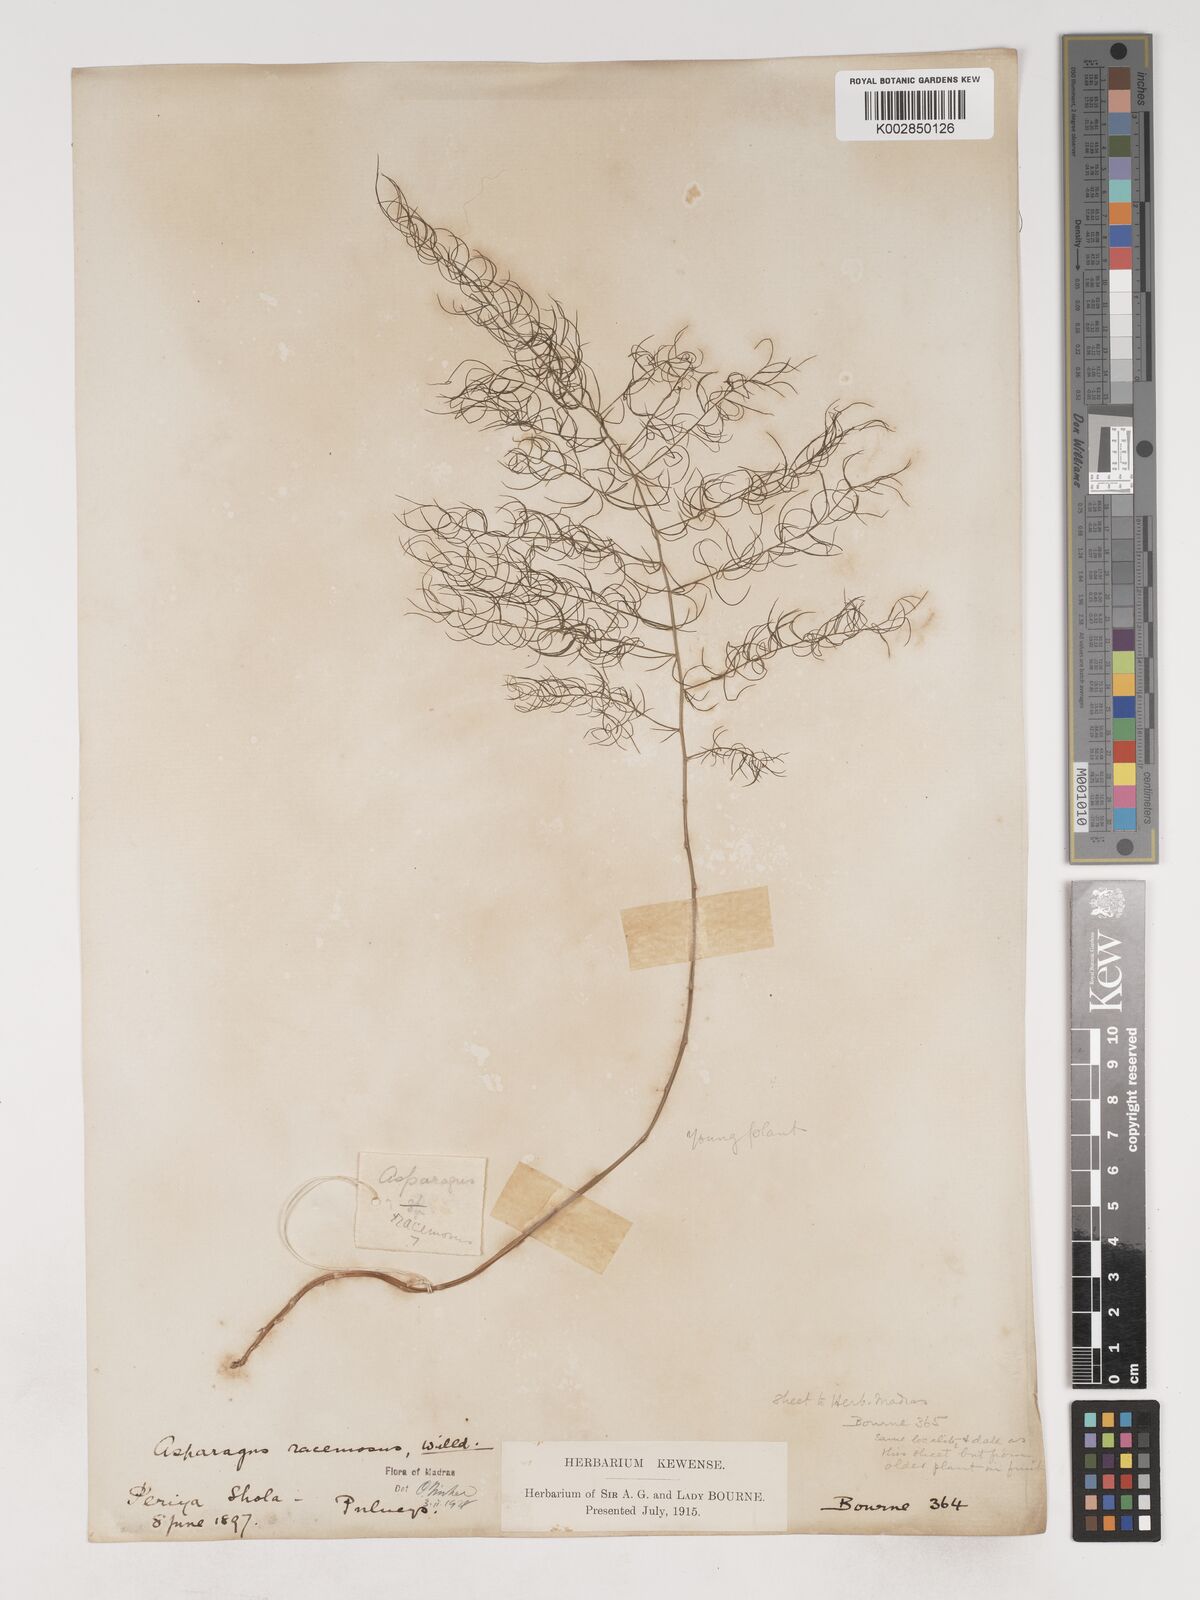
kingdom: Plantae
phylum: Tracheophyta
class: Liliopsida
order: Asparagales
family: Asparagaceae
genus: Asparagus
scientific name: Asparagus racemosus
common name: Asparagus-fern
